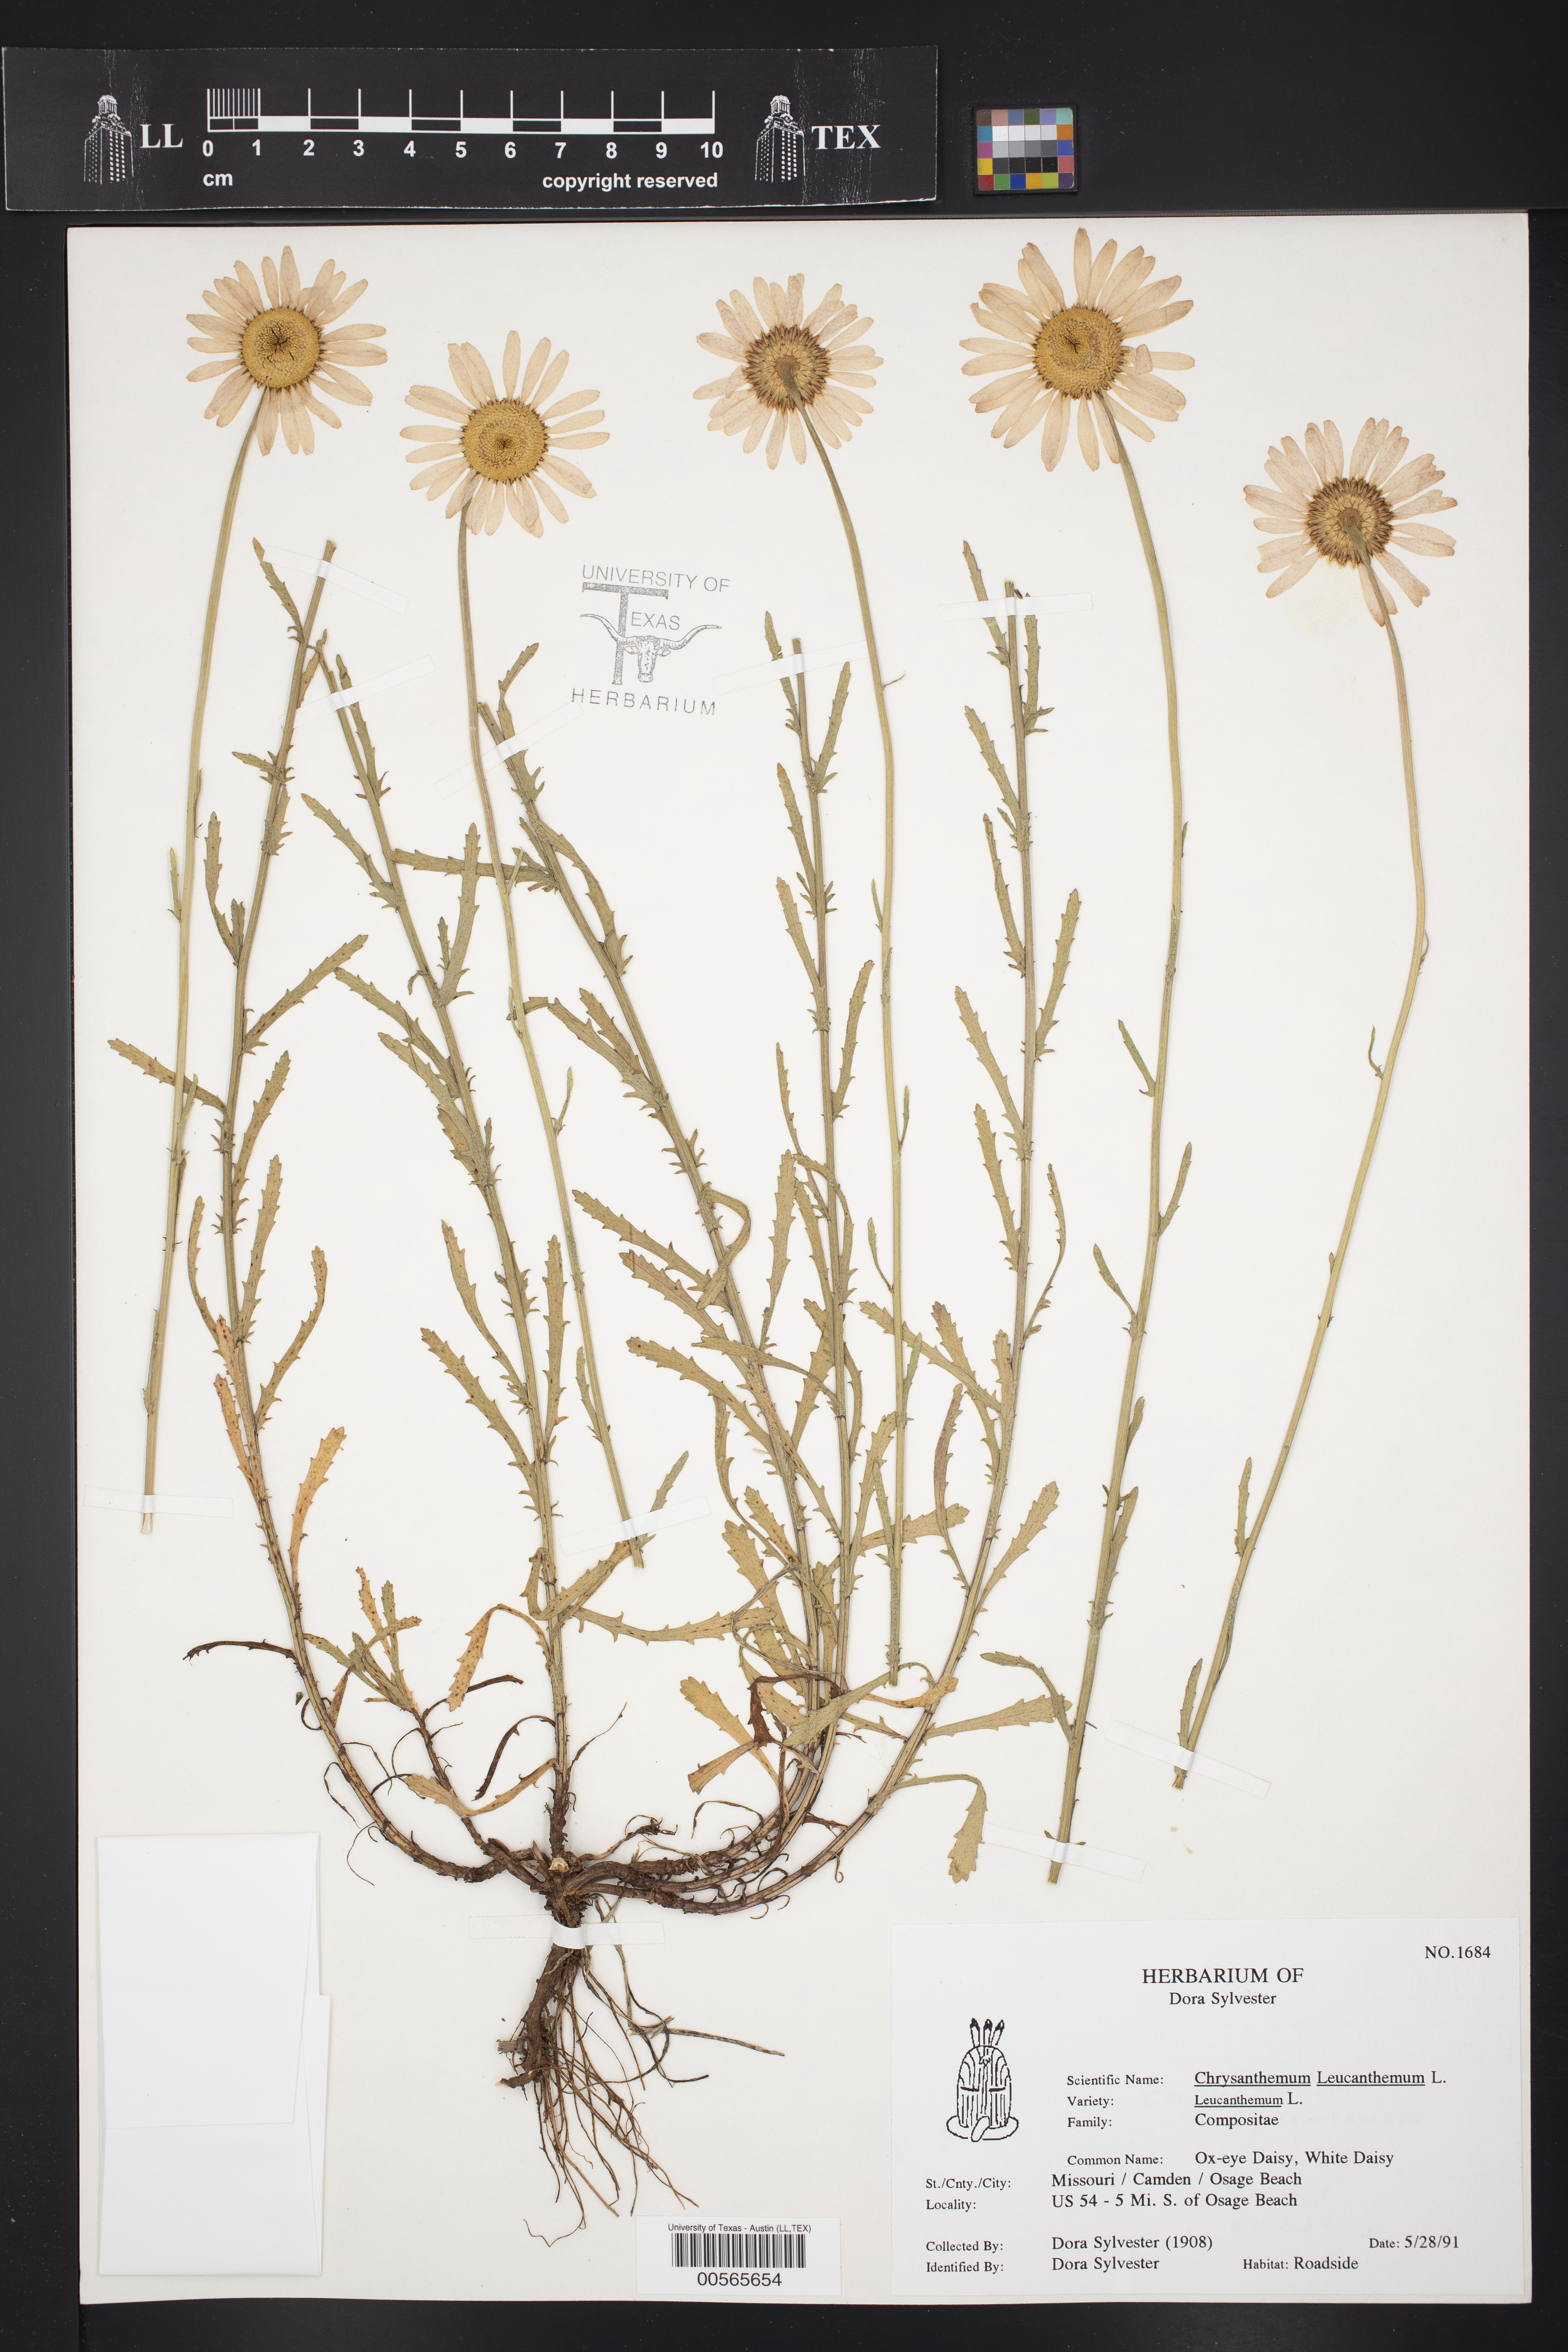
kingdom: Plantae
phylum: Tracheophyta
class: Magnoliopsida
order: Asterales
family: Asteraceae
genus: Leucanthemum
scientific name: Leucanthemum vulgare
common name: Oxeye daisy
